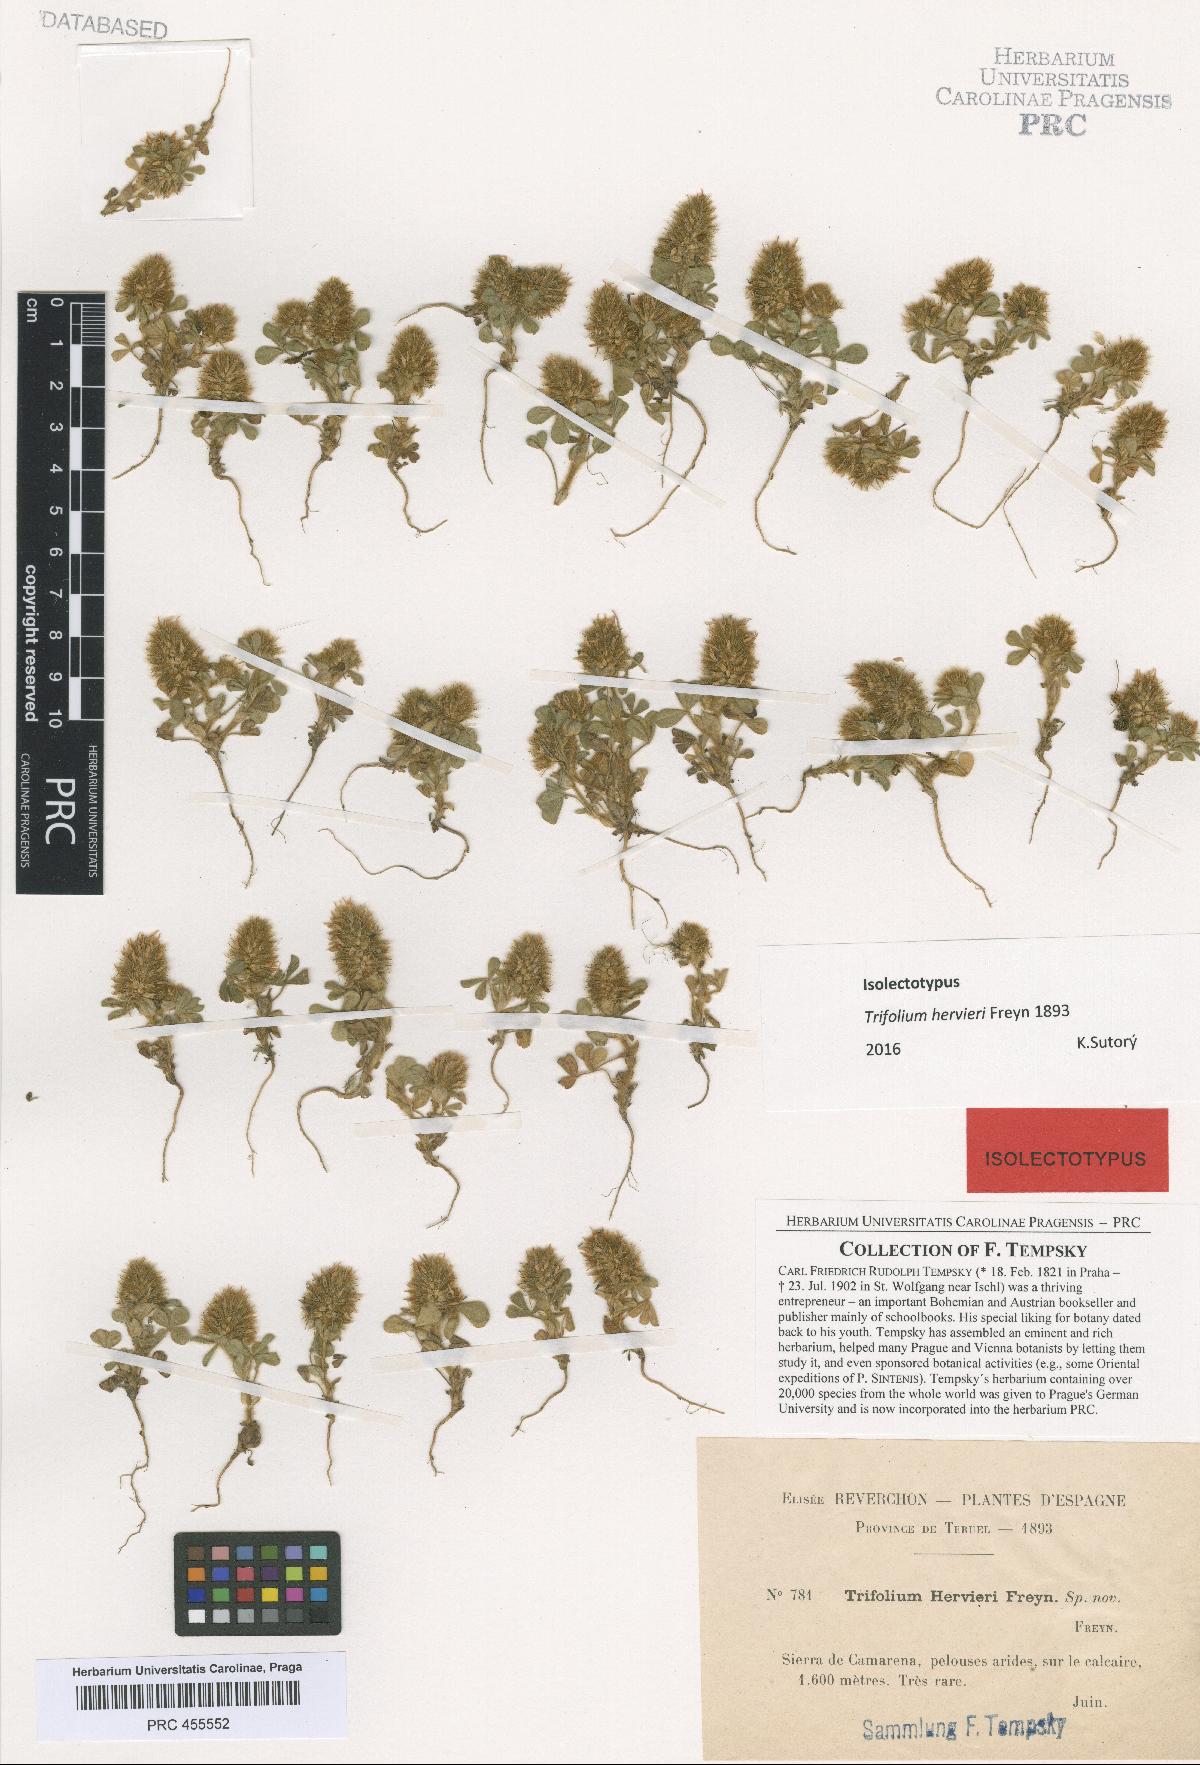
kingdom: Plantae
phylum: Tracheophyta
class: Magnoliopsida
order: Fabales
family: Fabaceae
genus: Trifolium
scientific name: Trifolium sylvaticum
